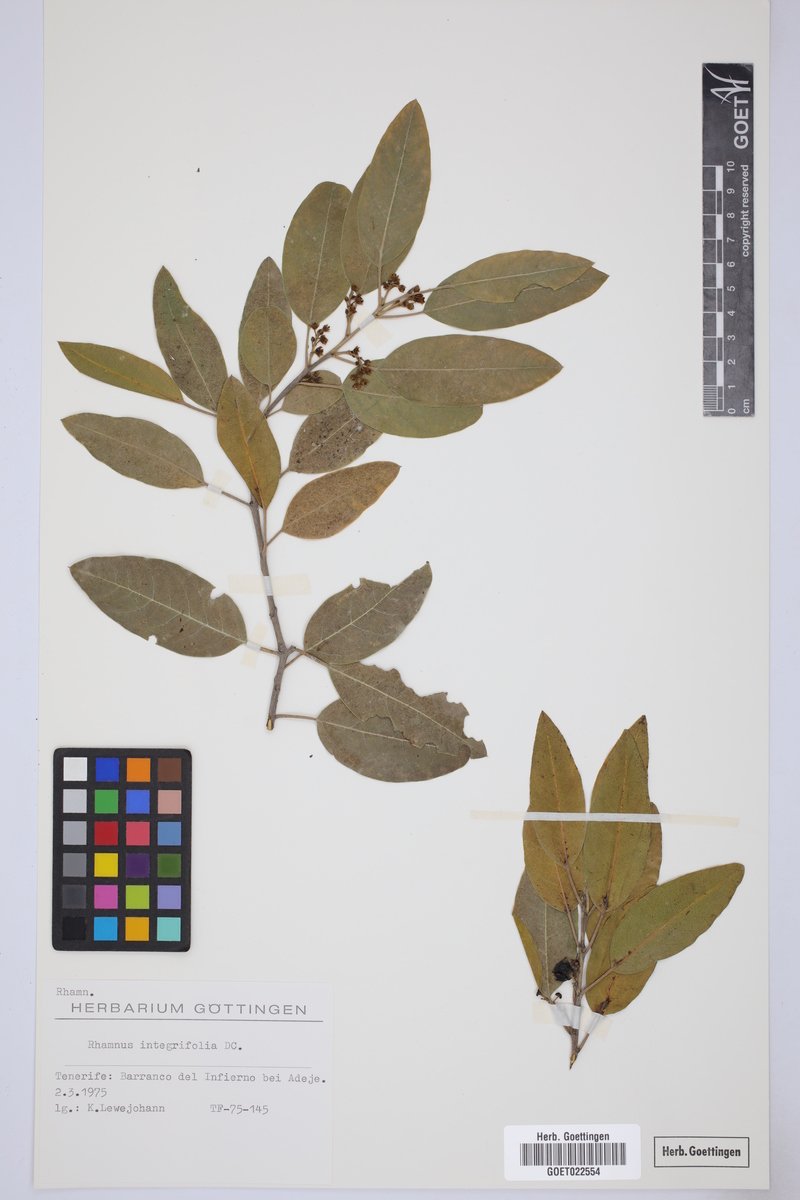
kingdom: Plantae
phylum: Tracheophyta
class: Magnoliopsida
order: Rosales
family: Rhamnaceae
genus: Rhamnus
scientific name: Rhamnus integrifolia
